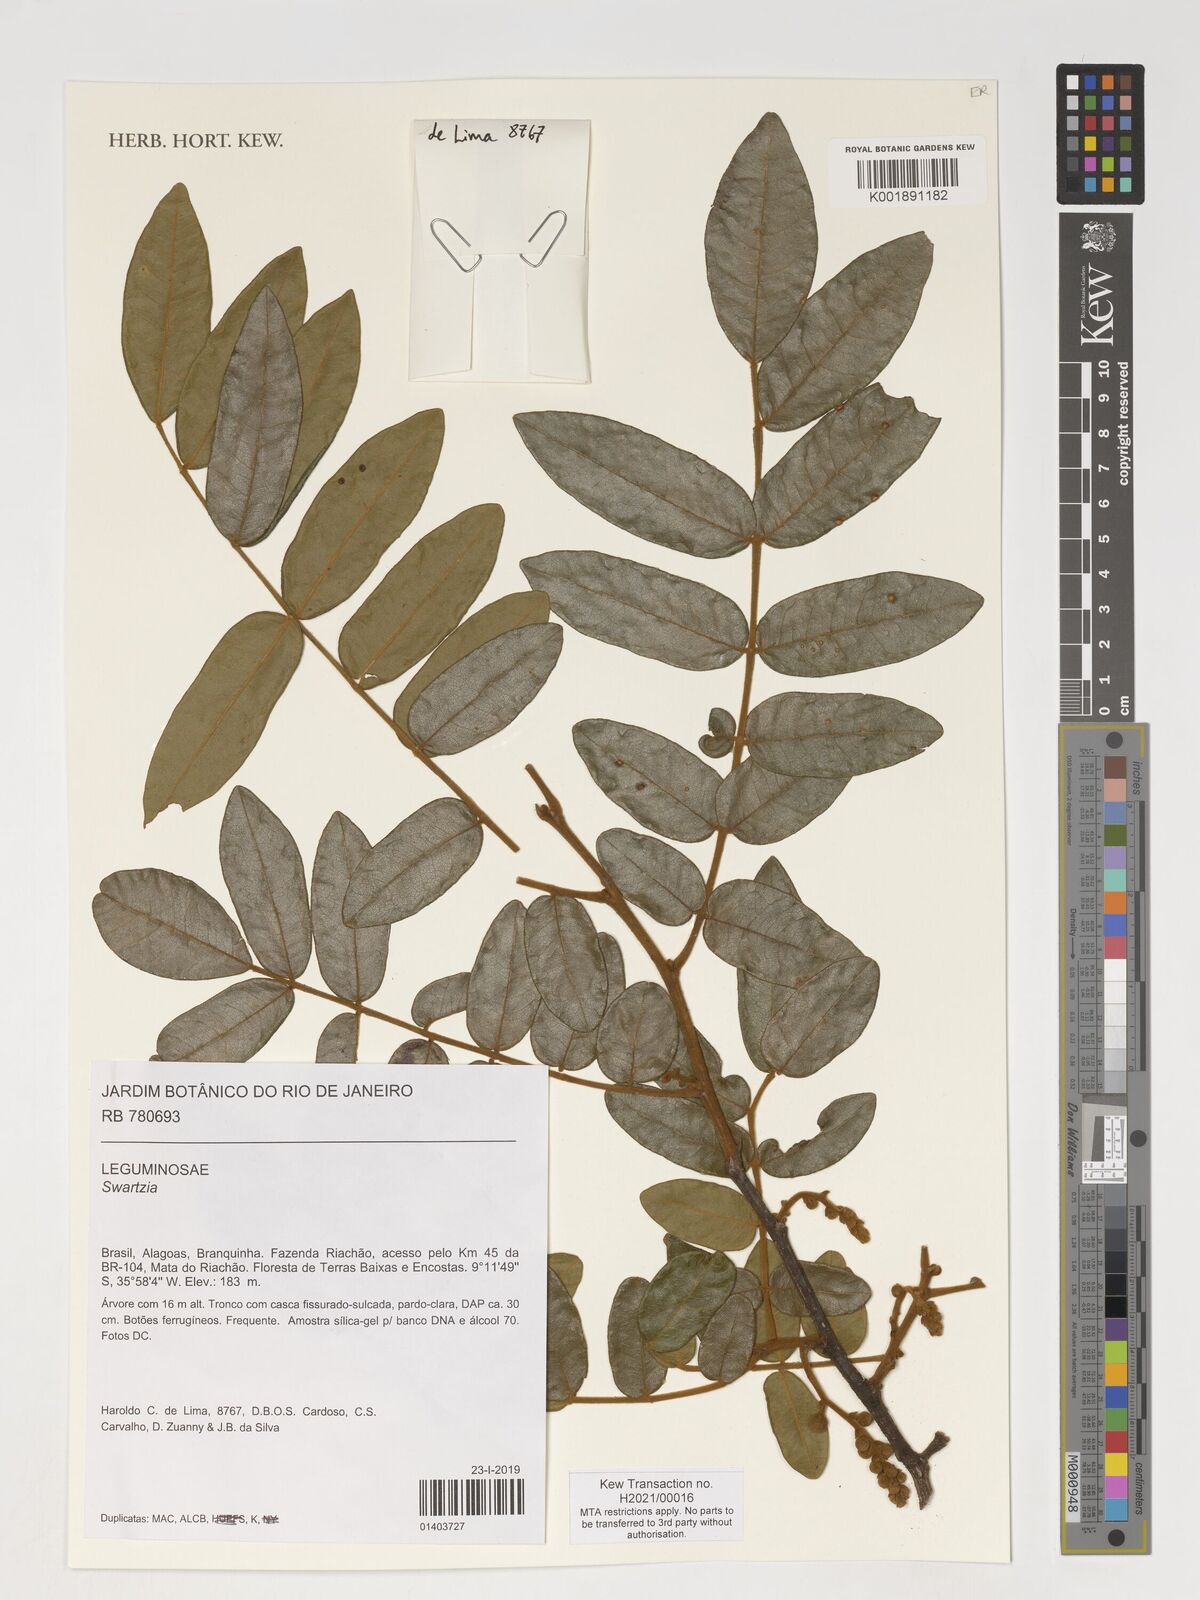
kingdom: Plantae
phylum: Tracheophyta
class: Magnoliopsida
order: Fabales
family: Fabaceae
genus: Swartzia
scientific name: Swartzia
